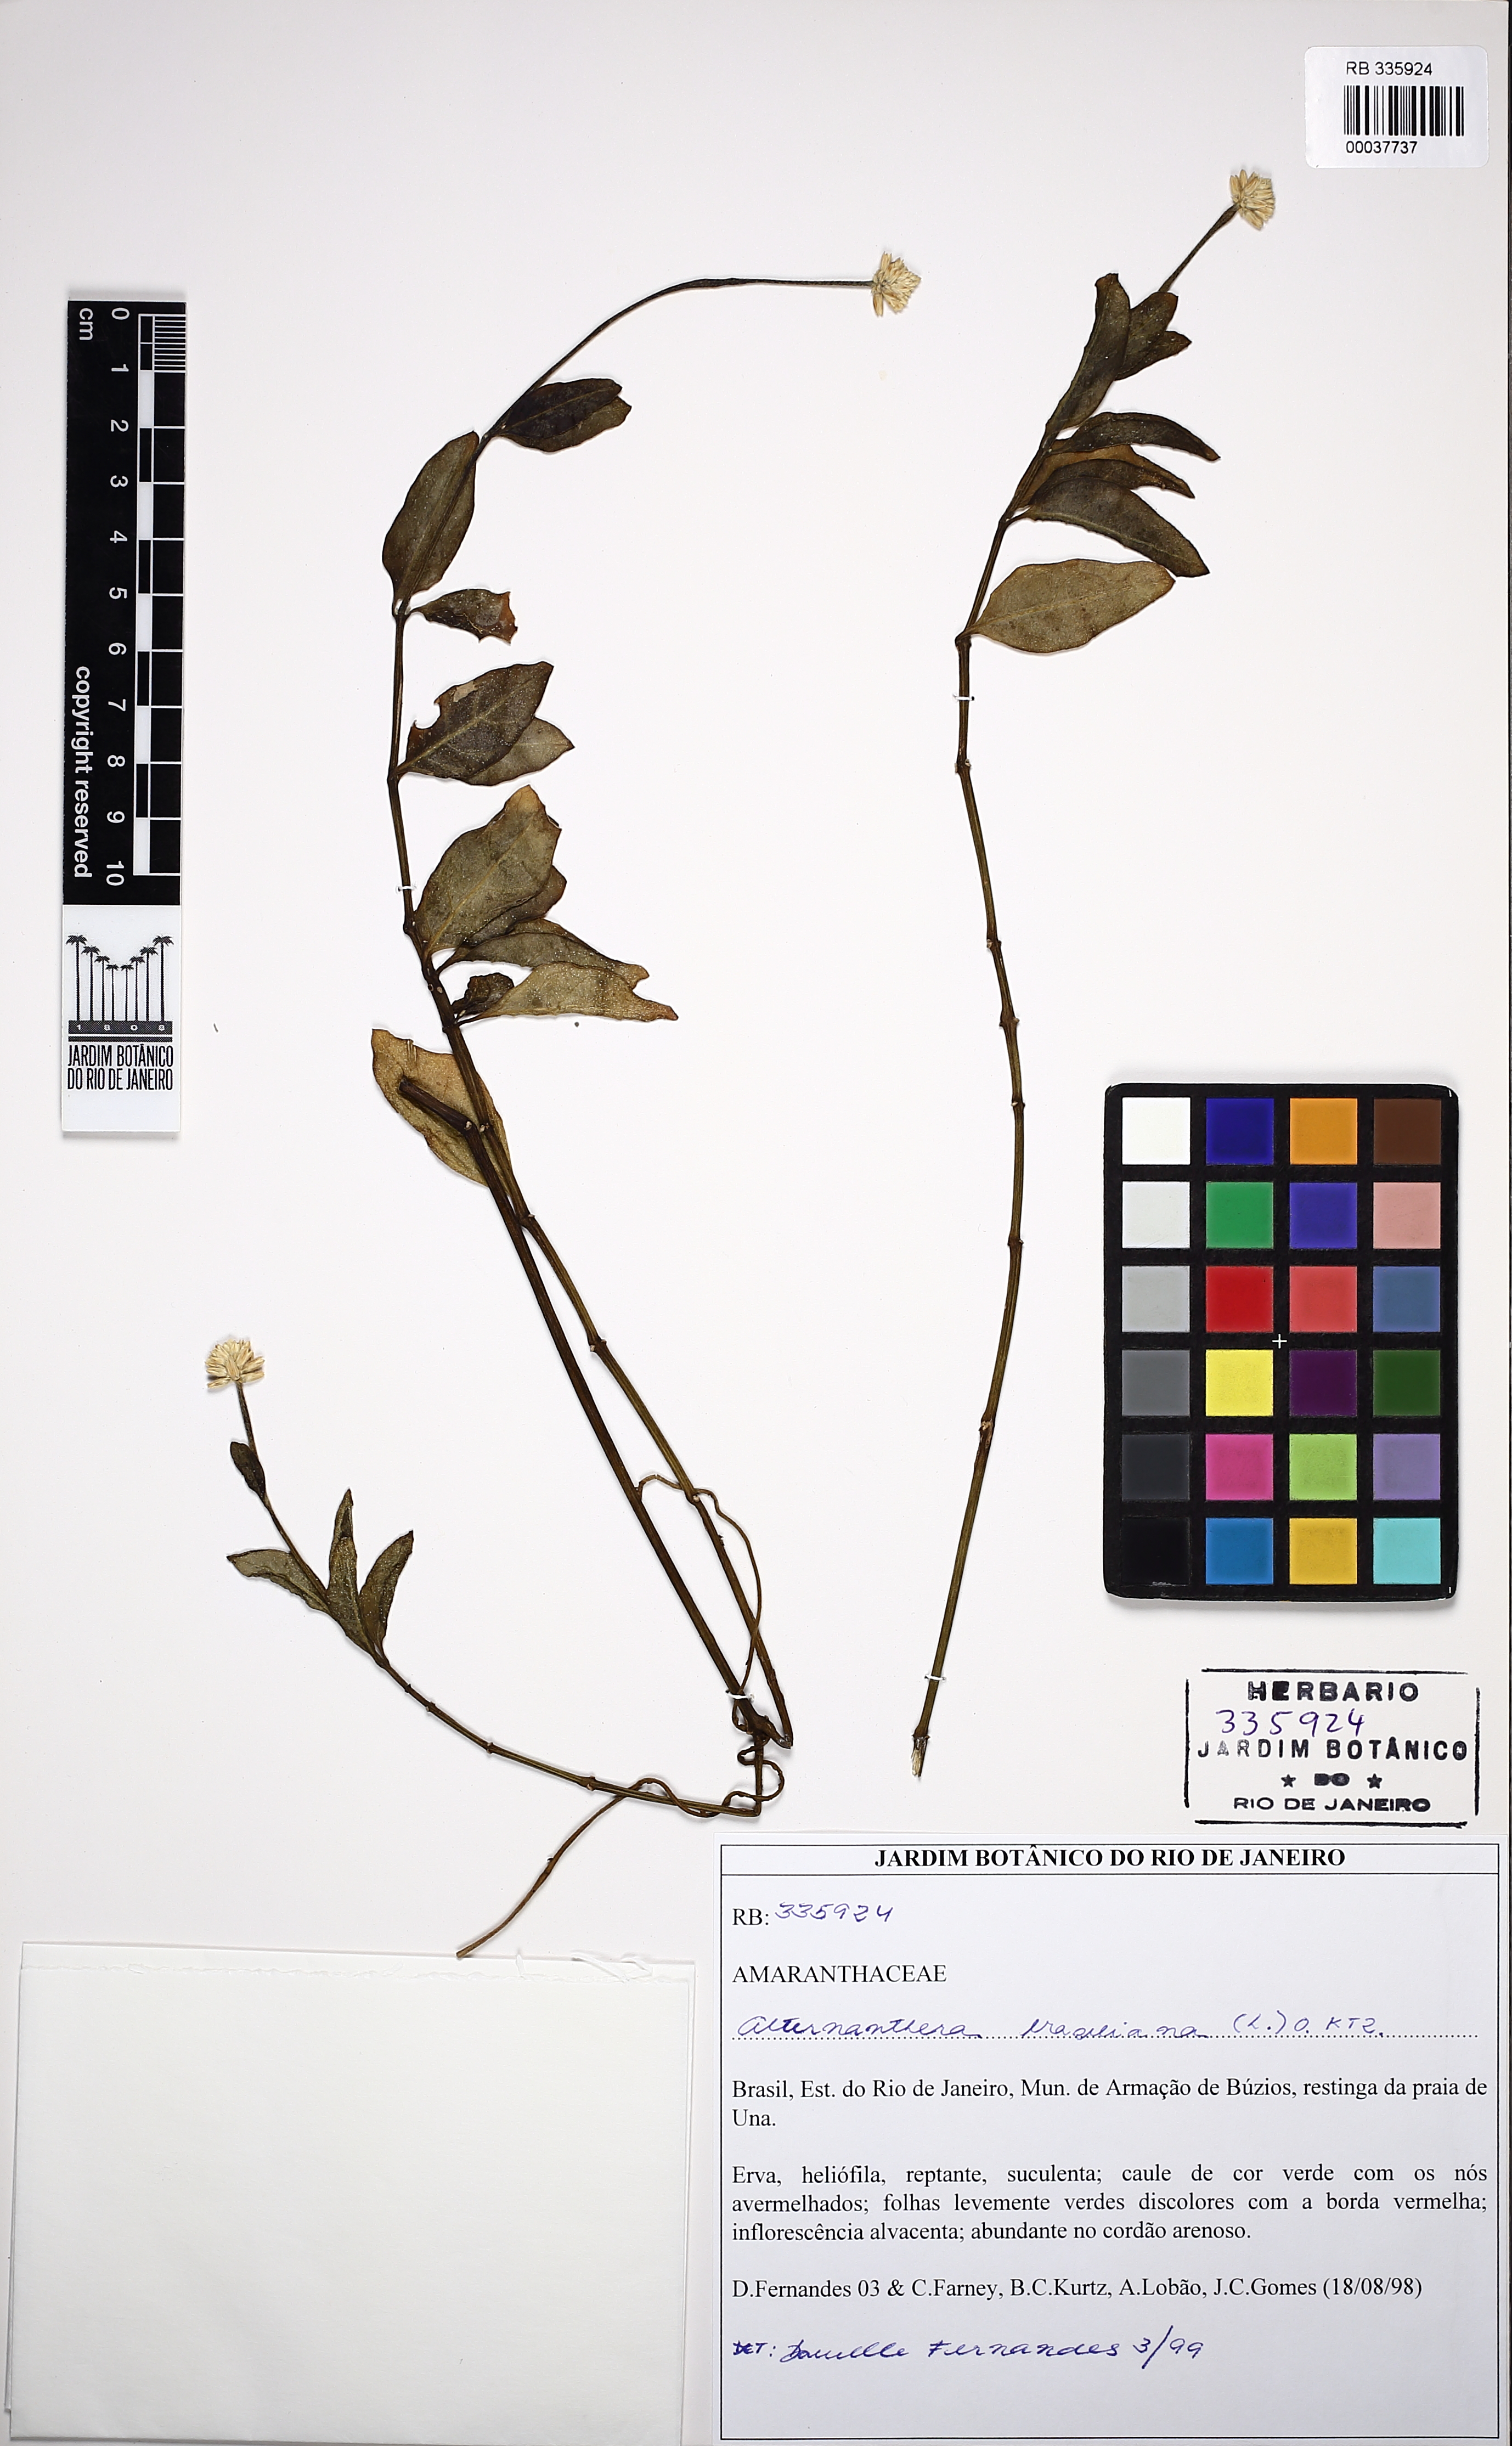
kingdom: Plantae
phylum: Tracheophyta
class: Magnoliopsida
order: Caryophyllales
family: Amaranthaceae
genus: Alternanthera
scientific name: Alternanthera praelonga
